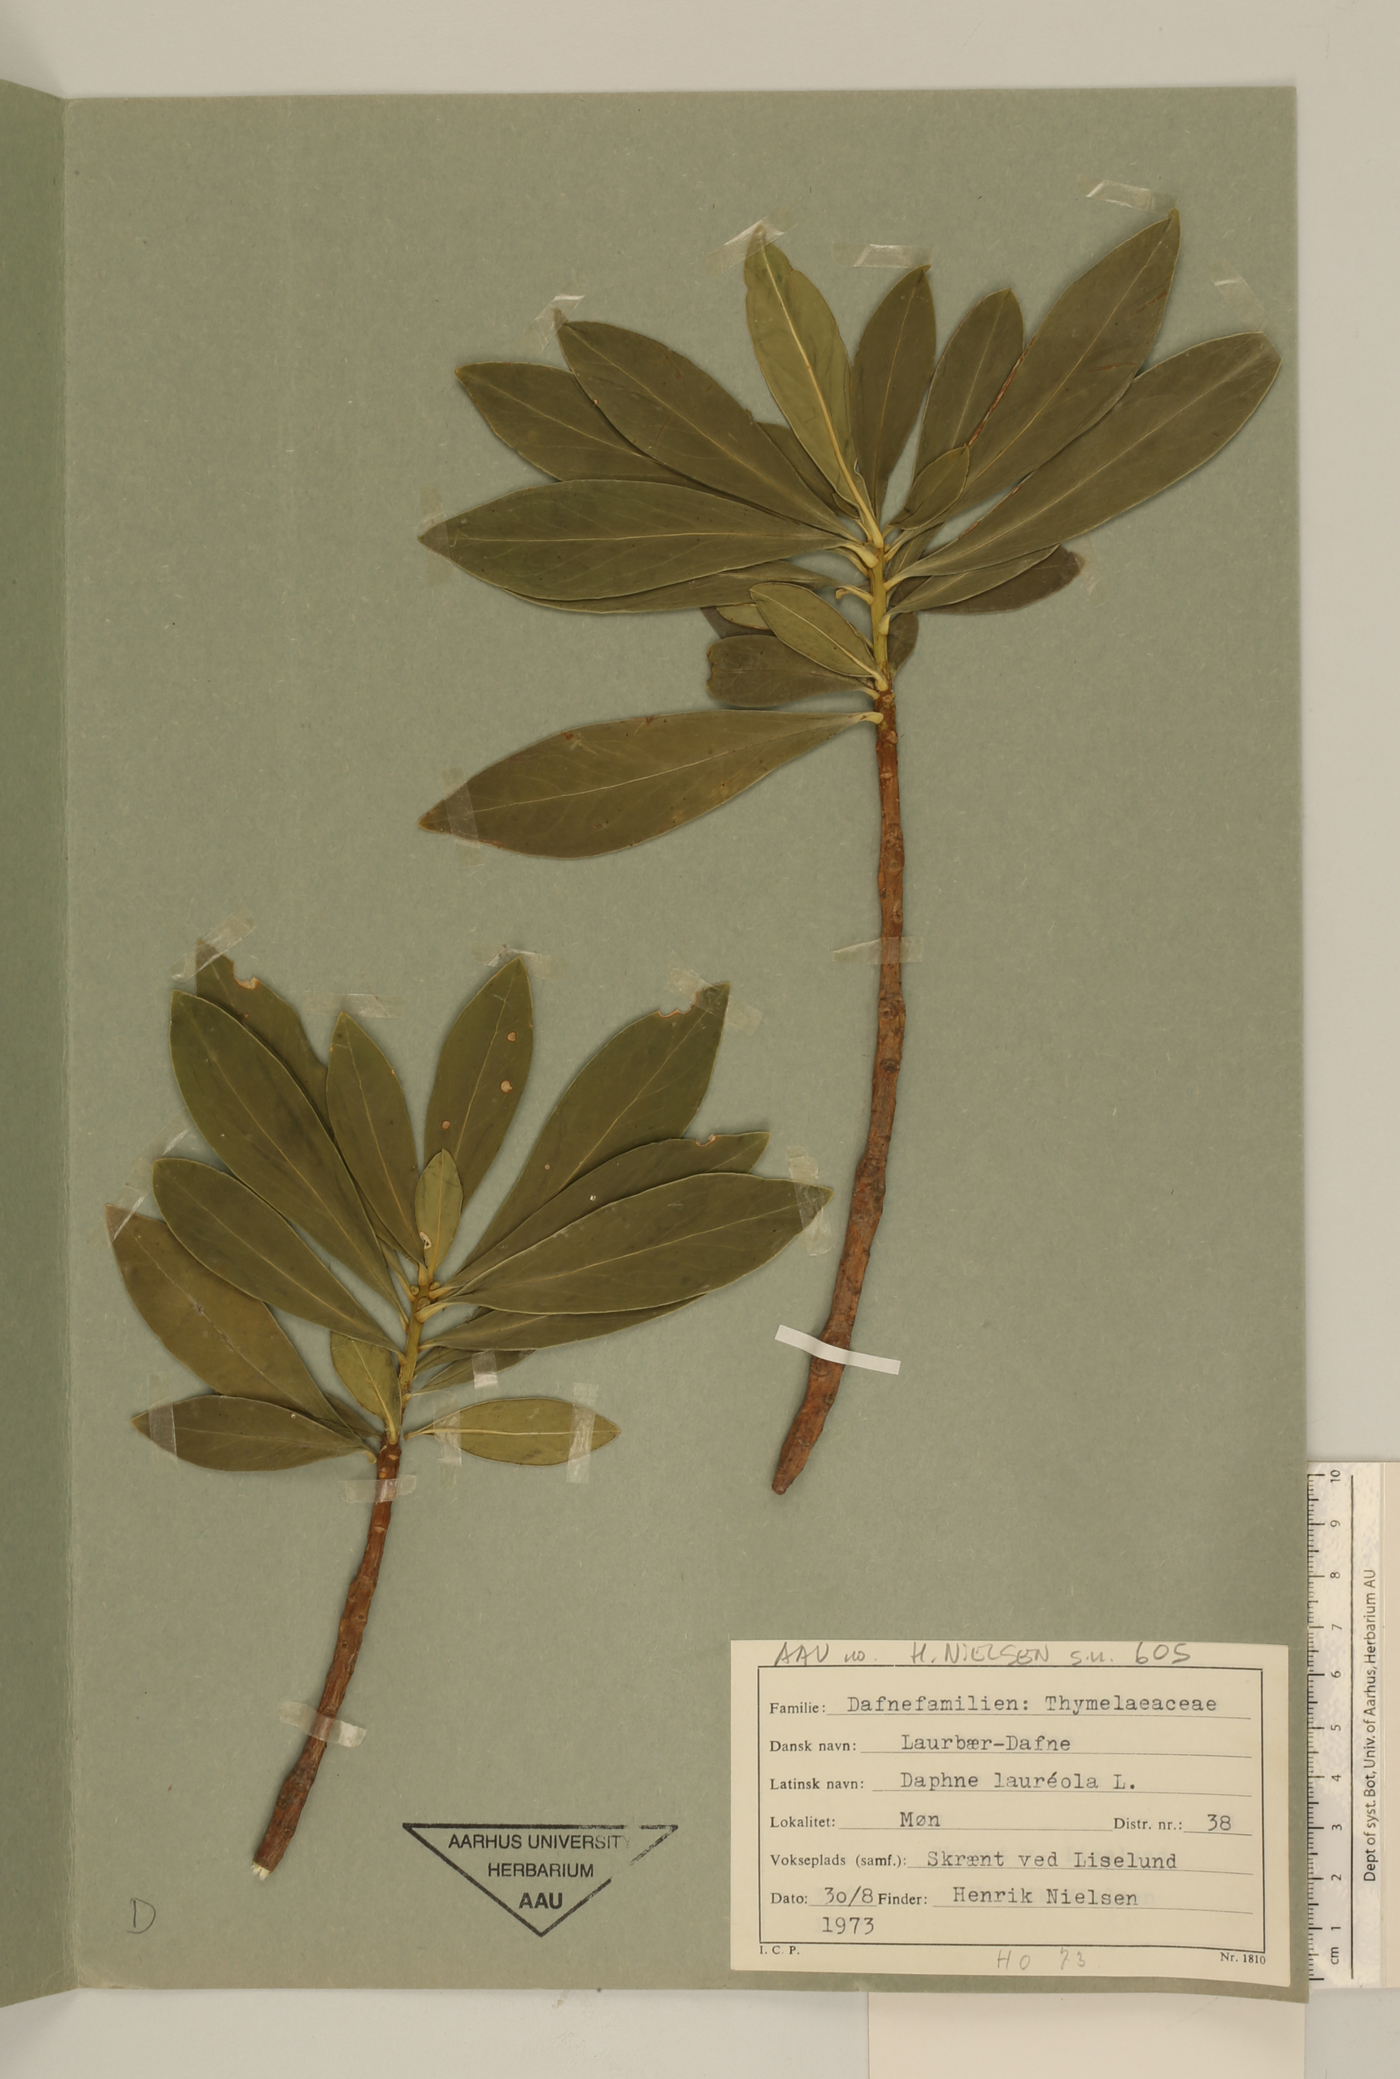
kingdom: Plantae
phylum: Tracheophyta
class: Magnoliopsida
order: Malvales
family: Thymelaeaceae
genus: Daphne
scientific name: Daphne laureola
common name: Spurge-laurel
